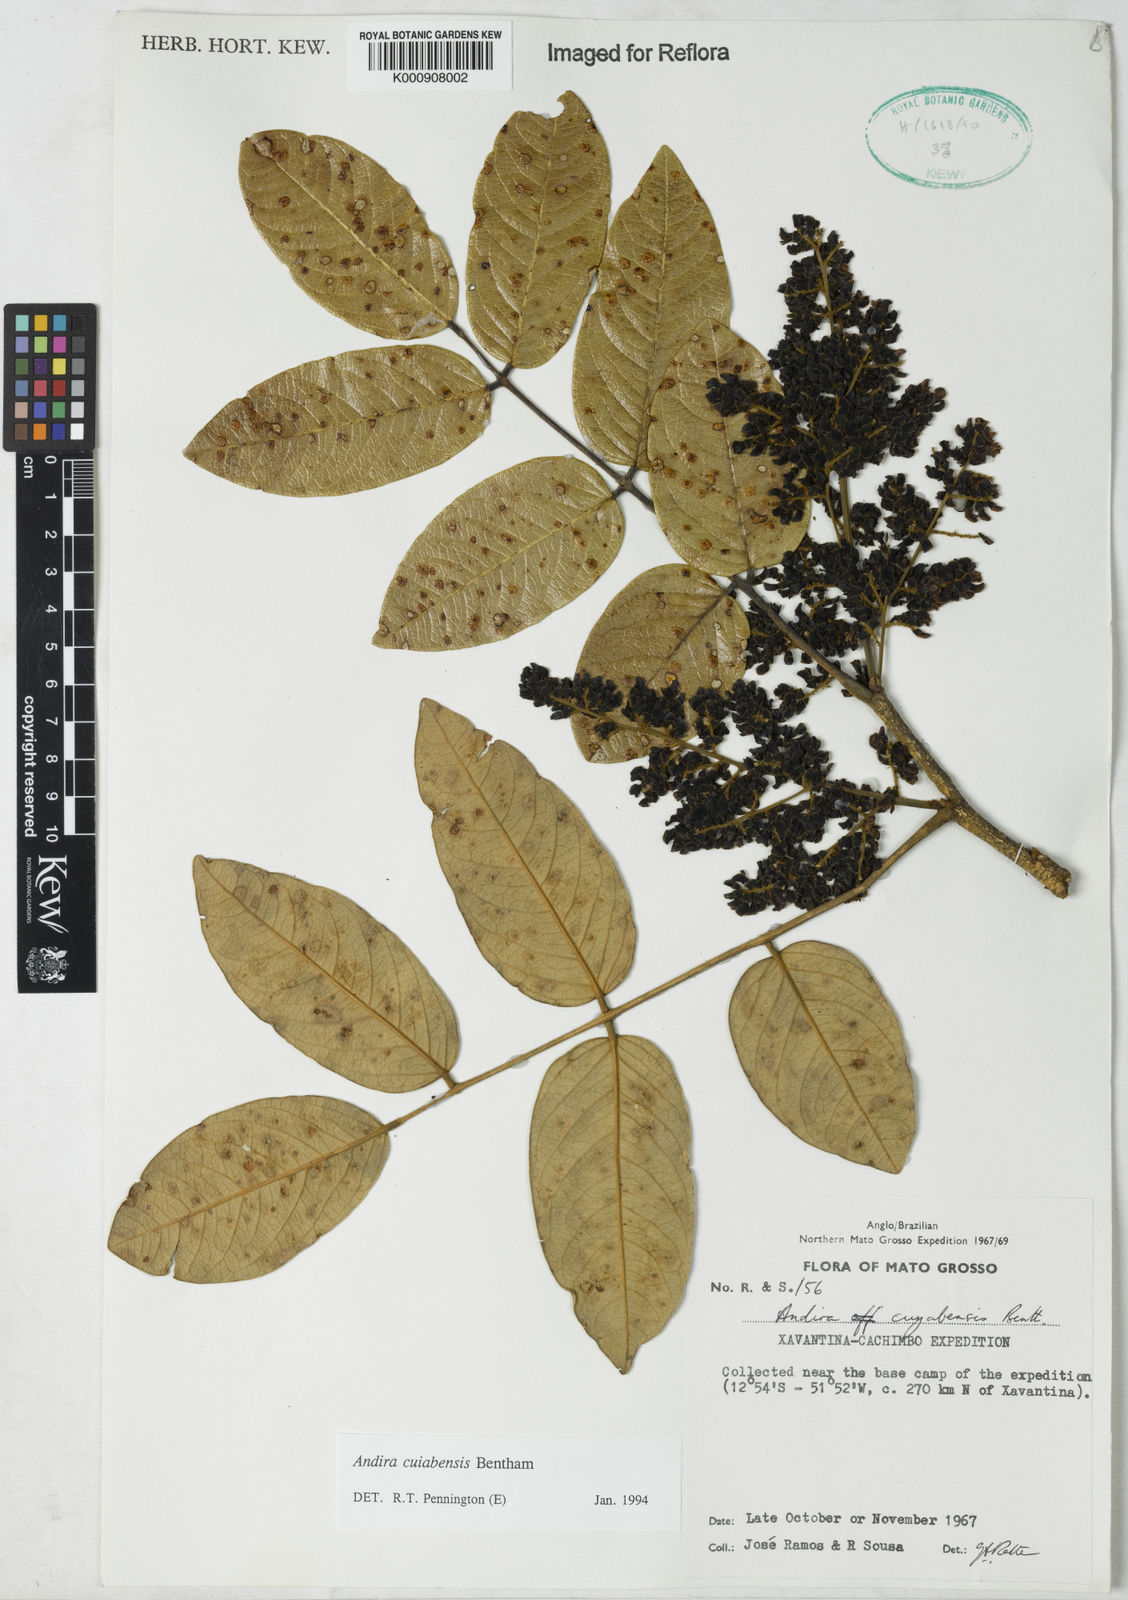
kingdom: Plantae
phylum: Tracheophyta
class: Magnoliopsida
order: Fabales
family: Fabaceae
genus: Andira
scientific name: Andira cujabensis
